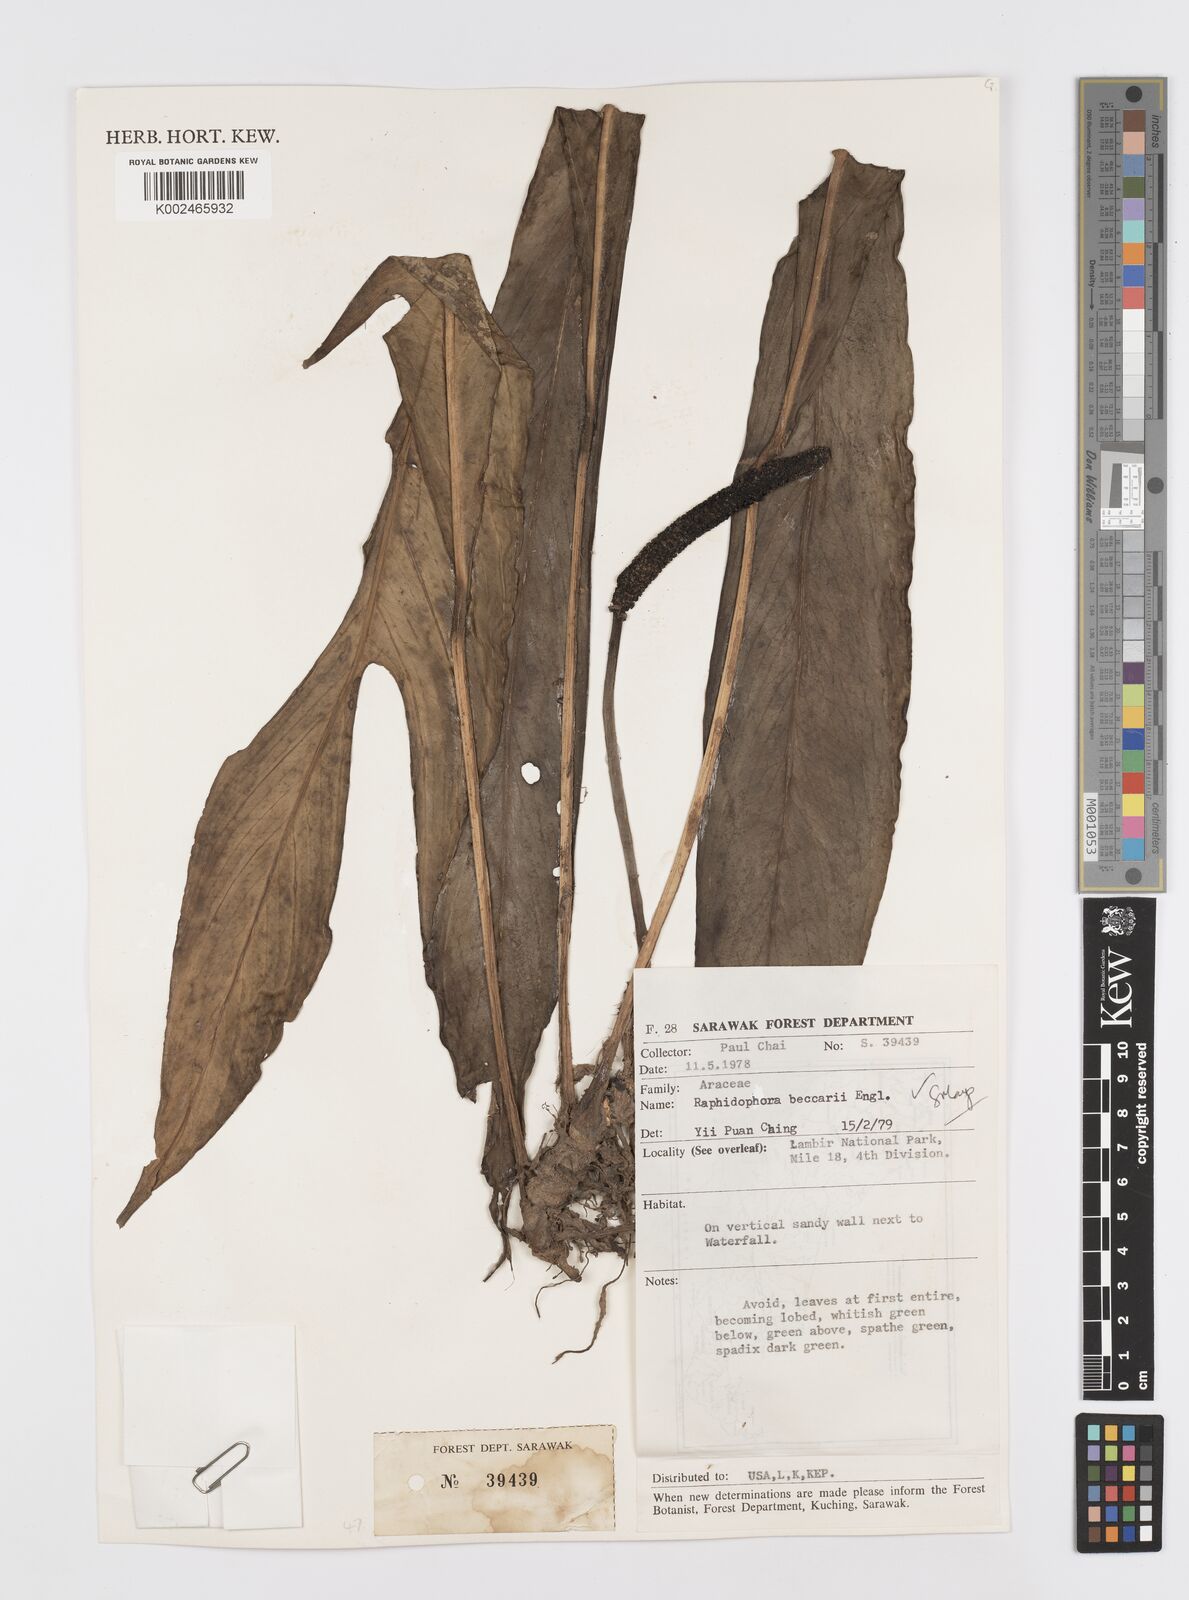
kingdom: Plantae
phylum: Tracheophyta
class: Liliopsida
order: Alismatales
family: Araceae
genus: Rhaphidophora
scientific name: Rhaphidophora beccarii
